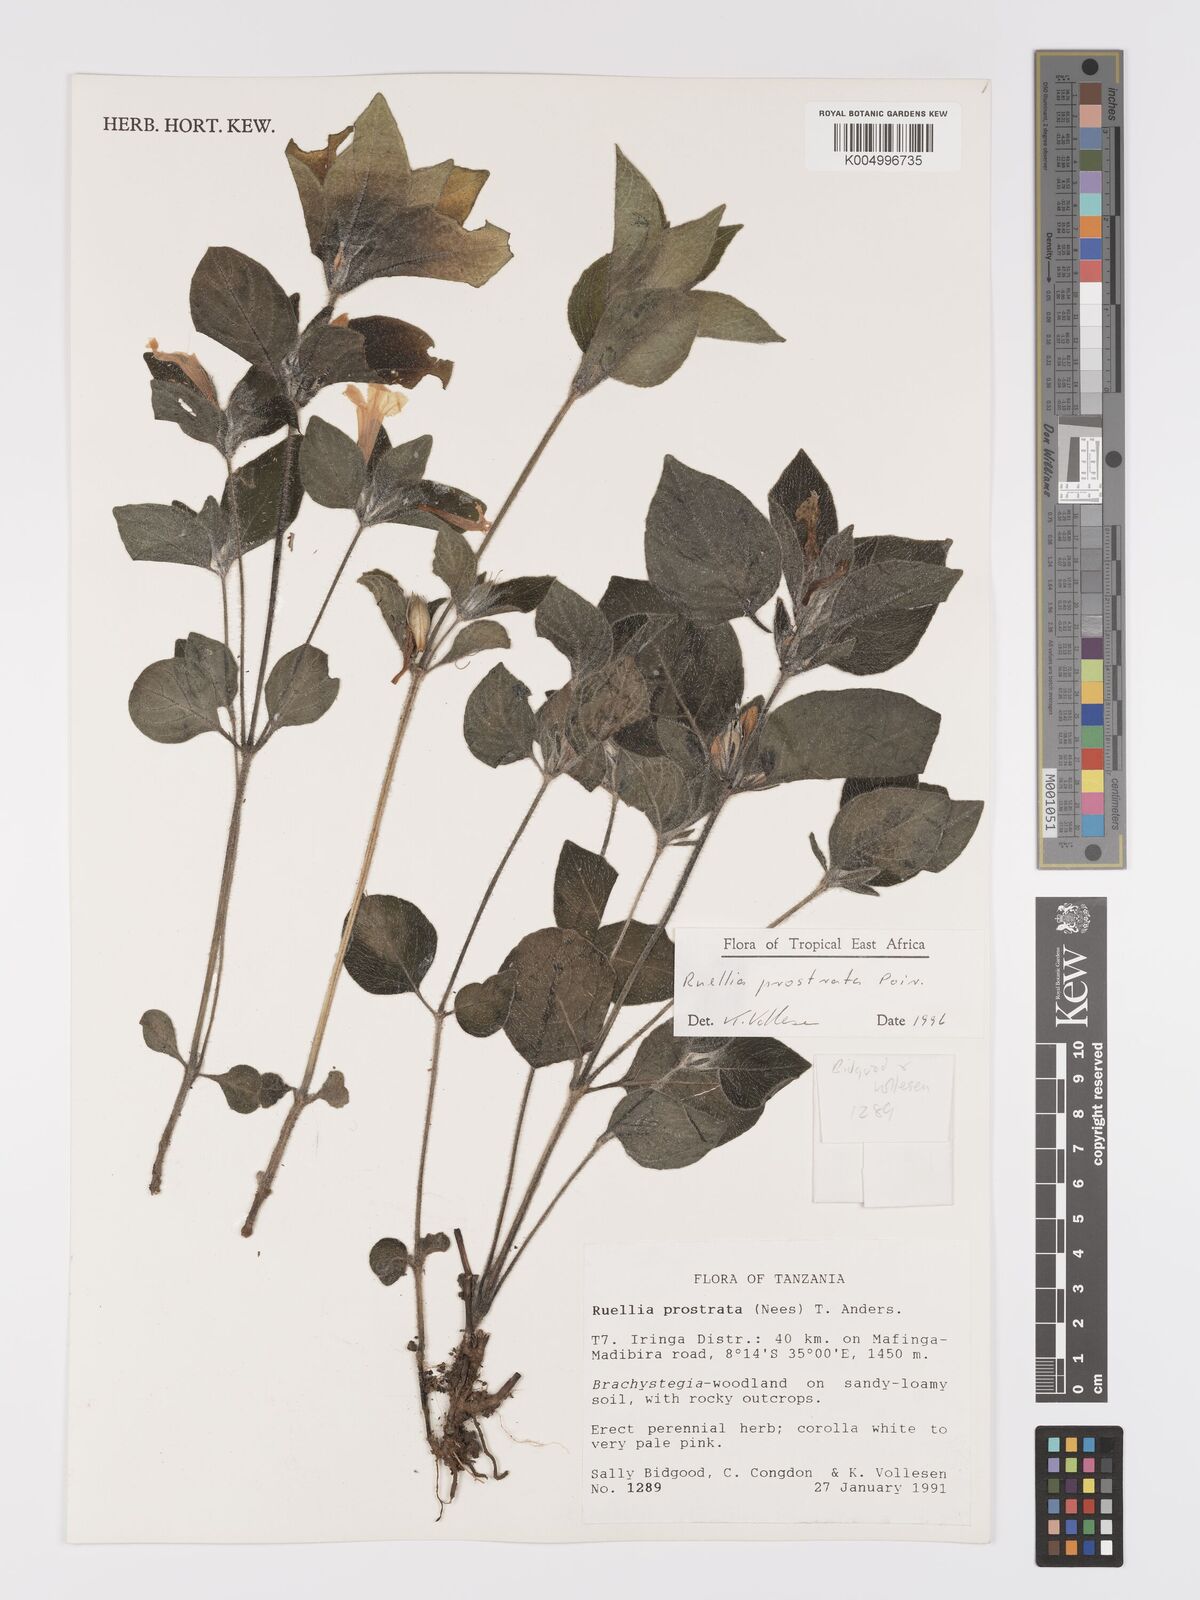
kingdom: Plantae
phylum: Tracheophyta
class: Magnoliopsida
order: Lamiales
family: Acanthaceae
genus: Ruellia
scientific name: Ruellia
